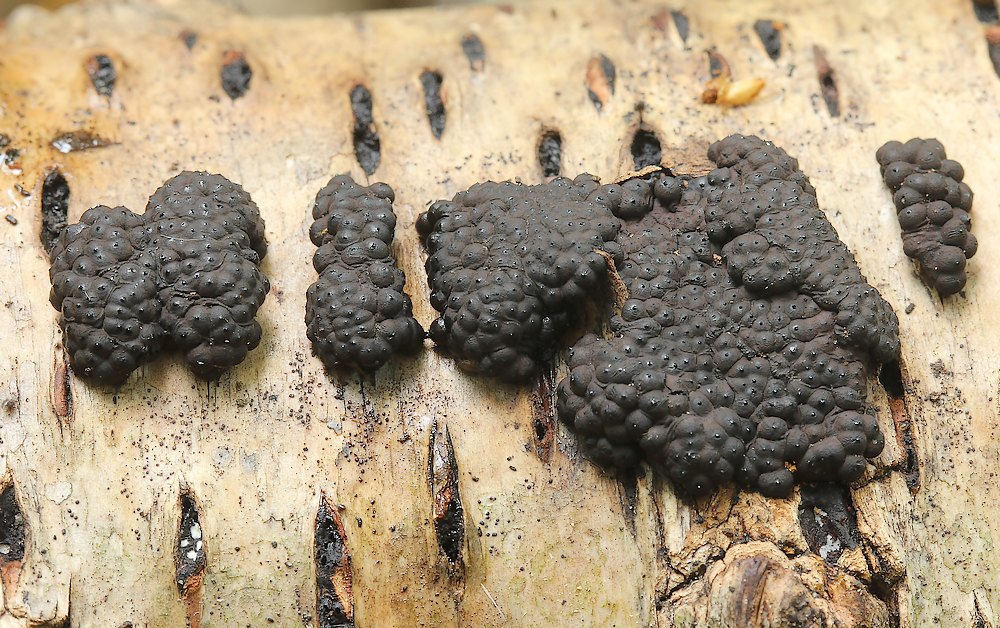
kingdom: Fungi
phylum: Ascomycota
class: Sordariomycetes
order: Xylariales
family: Hypoxylaceae
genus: Jackrogersella
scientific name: Jackrogersella multiformis
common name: foranderlig kulbær
